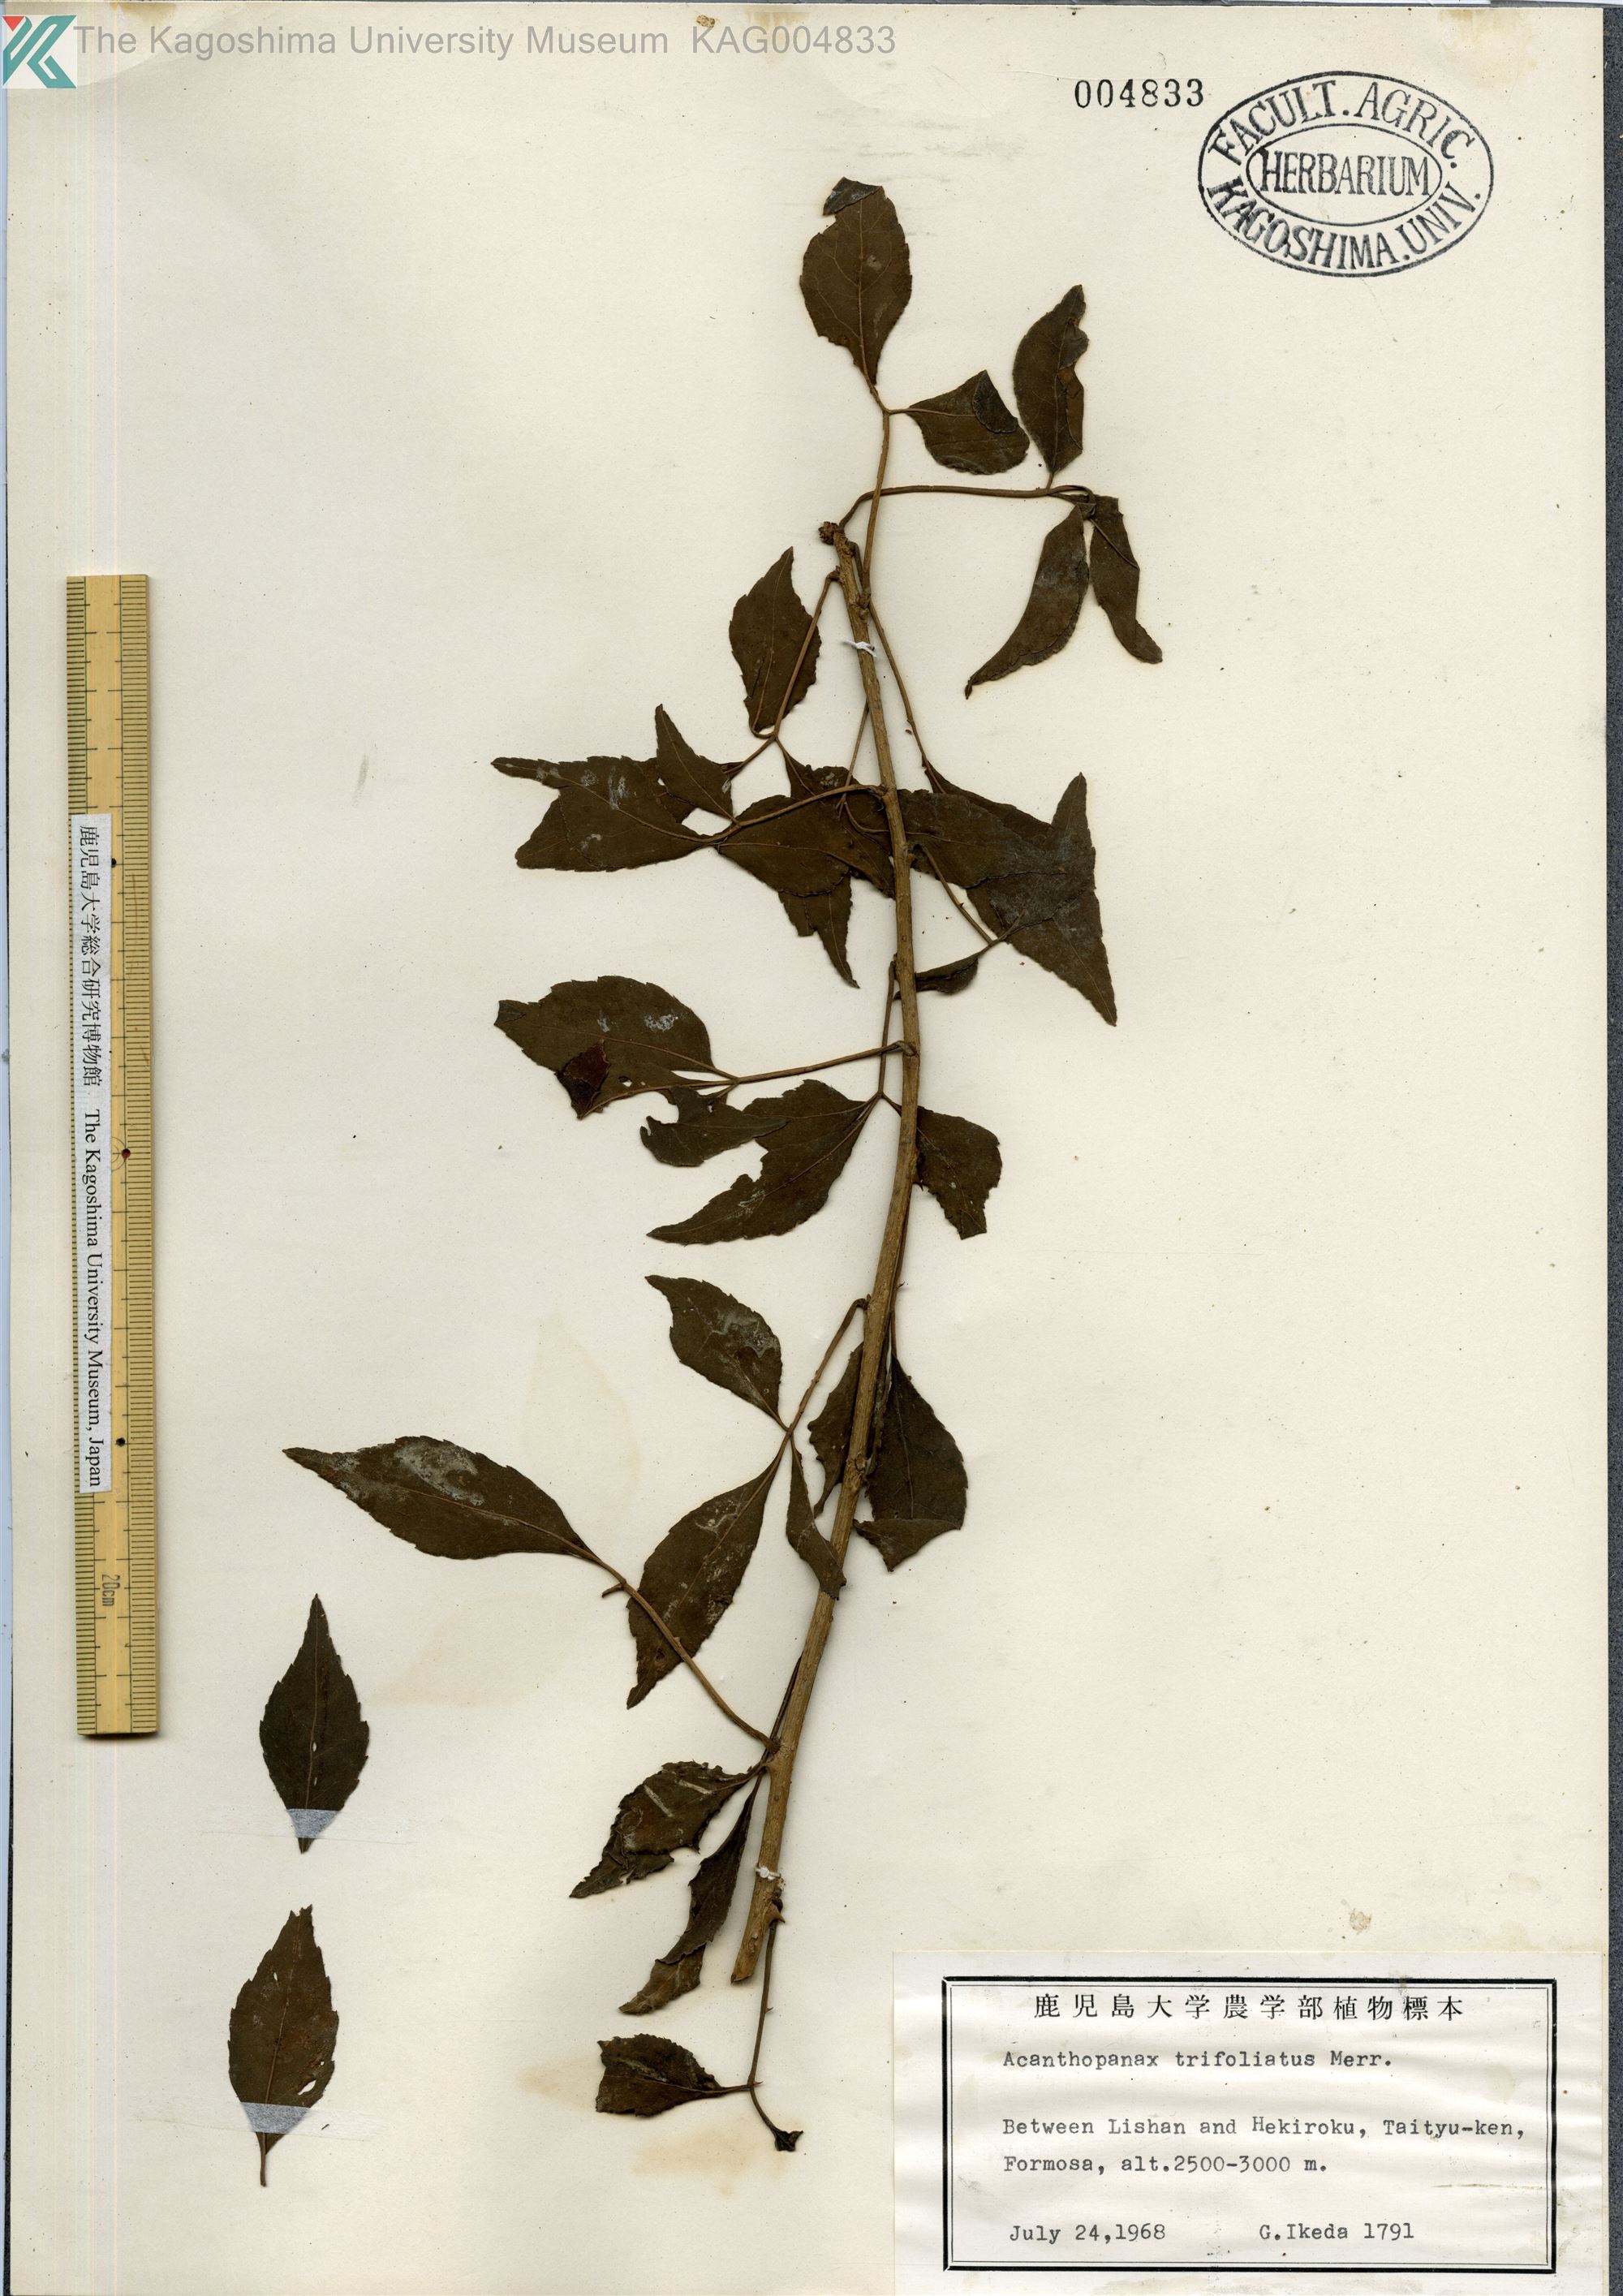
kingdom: Plantae
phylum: Tracheophyta
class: Magnoliopsida
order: Apiales
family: Araliaceae
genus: Eleutherococcus
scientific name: Eleutherococcus trifoliatus
